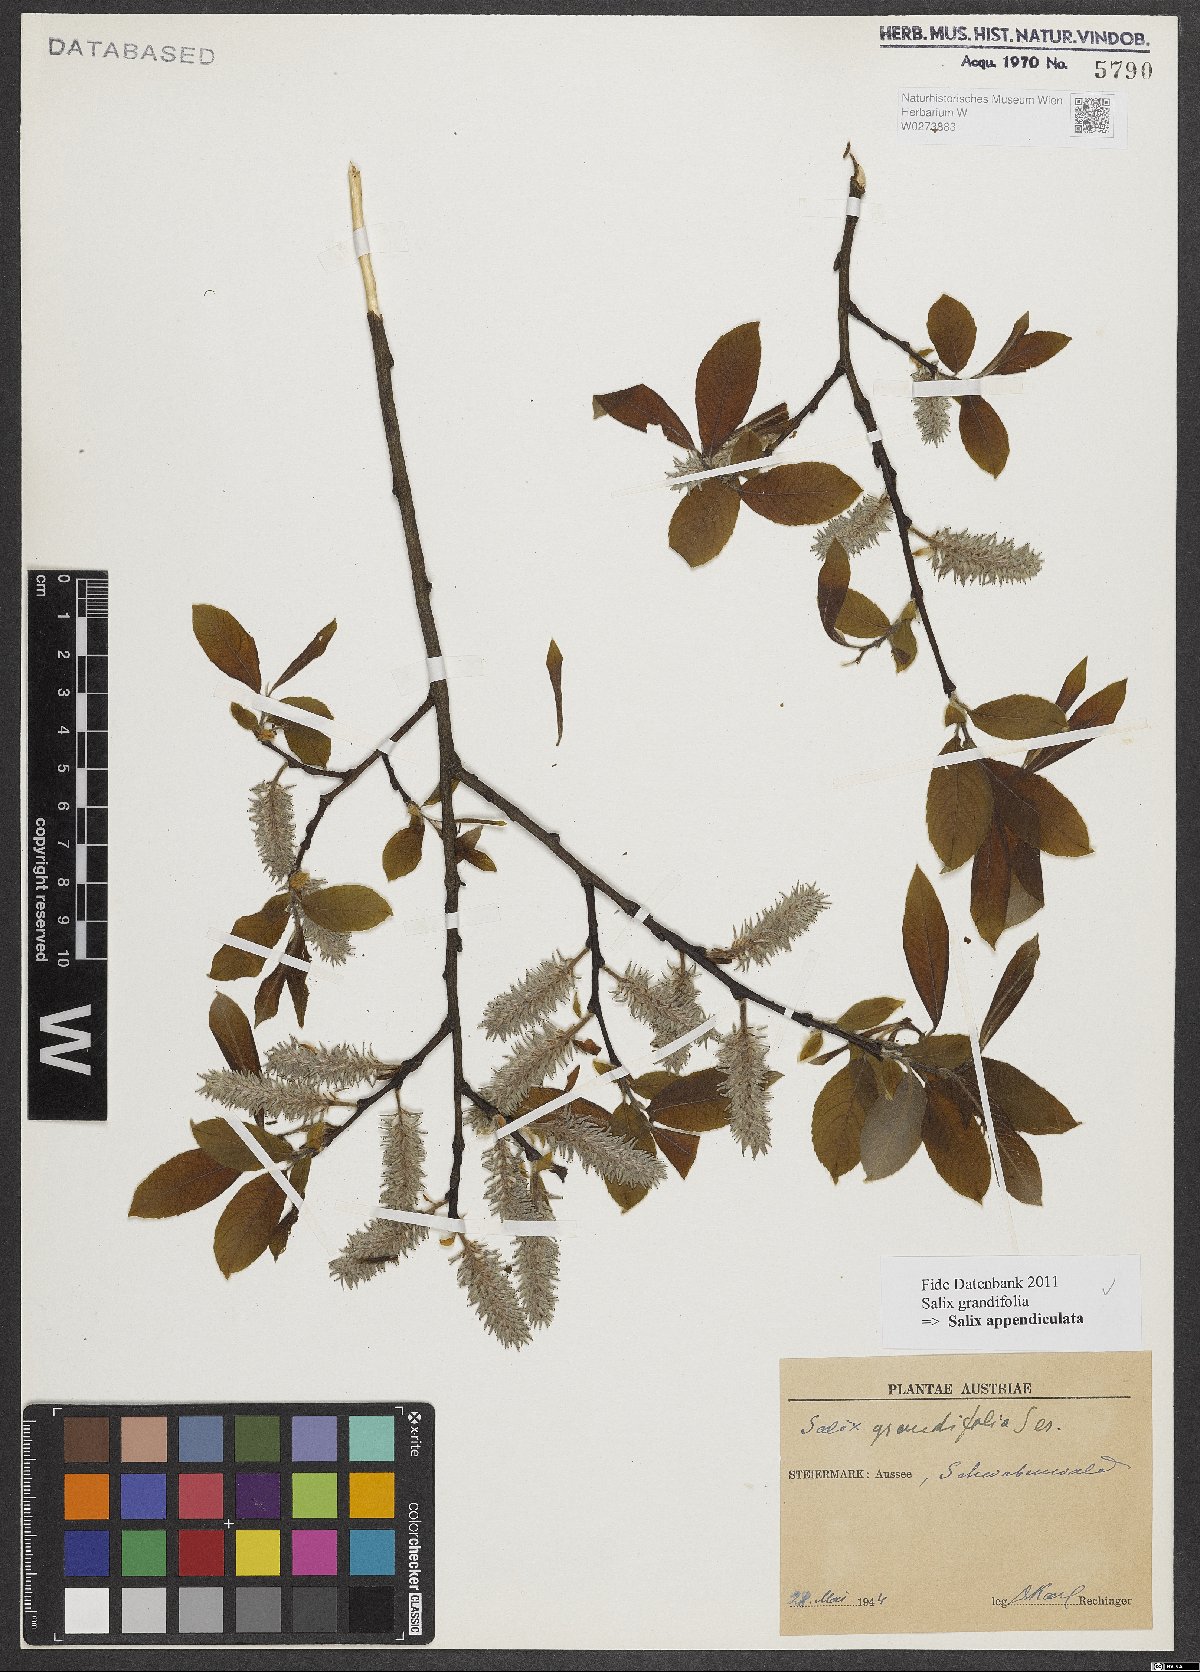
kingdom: Plantae
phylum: Tracheophyta
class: Magnoliopsida
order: Malpighiales
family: Salicaceae
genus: Salix
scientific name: Salix appendiculata
